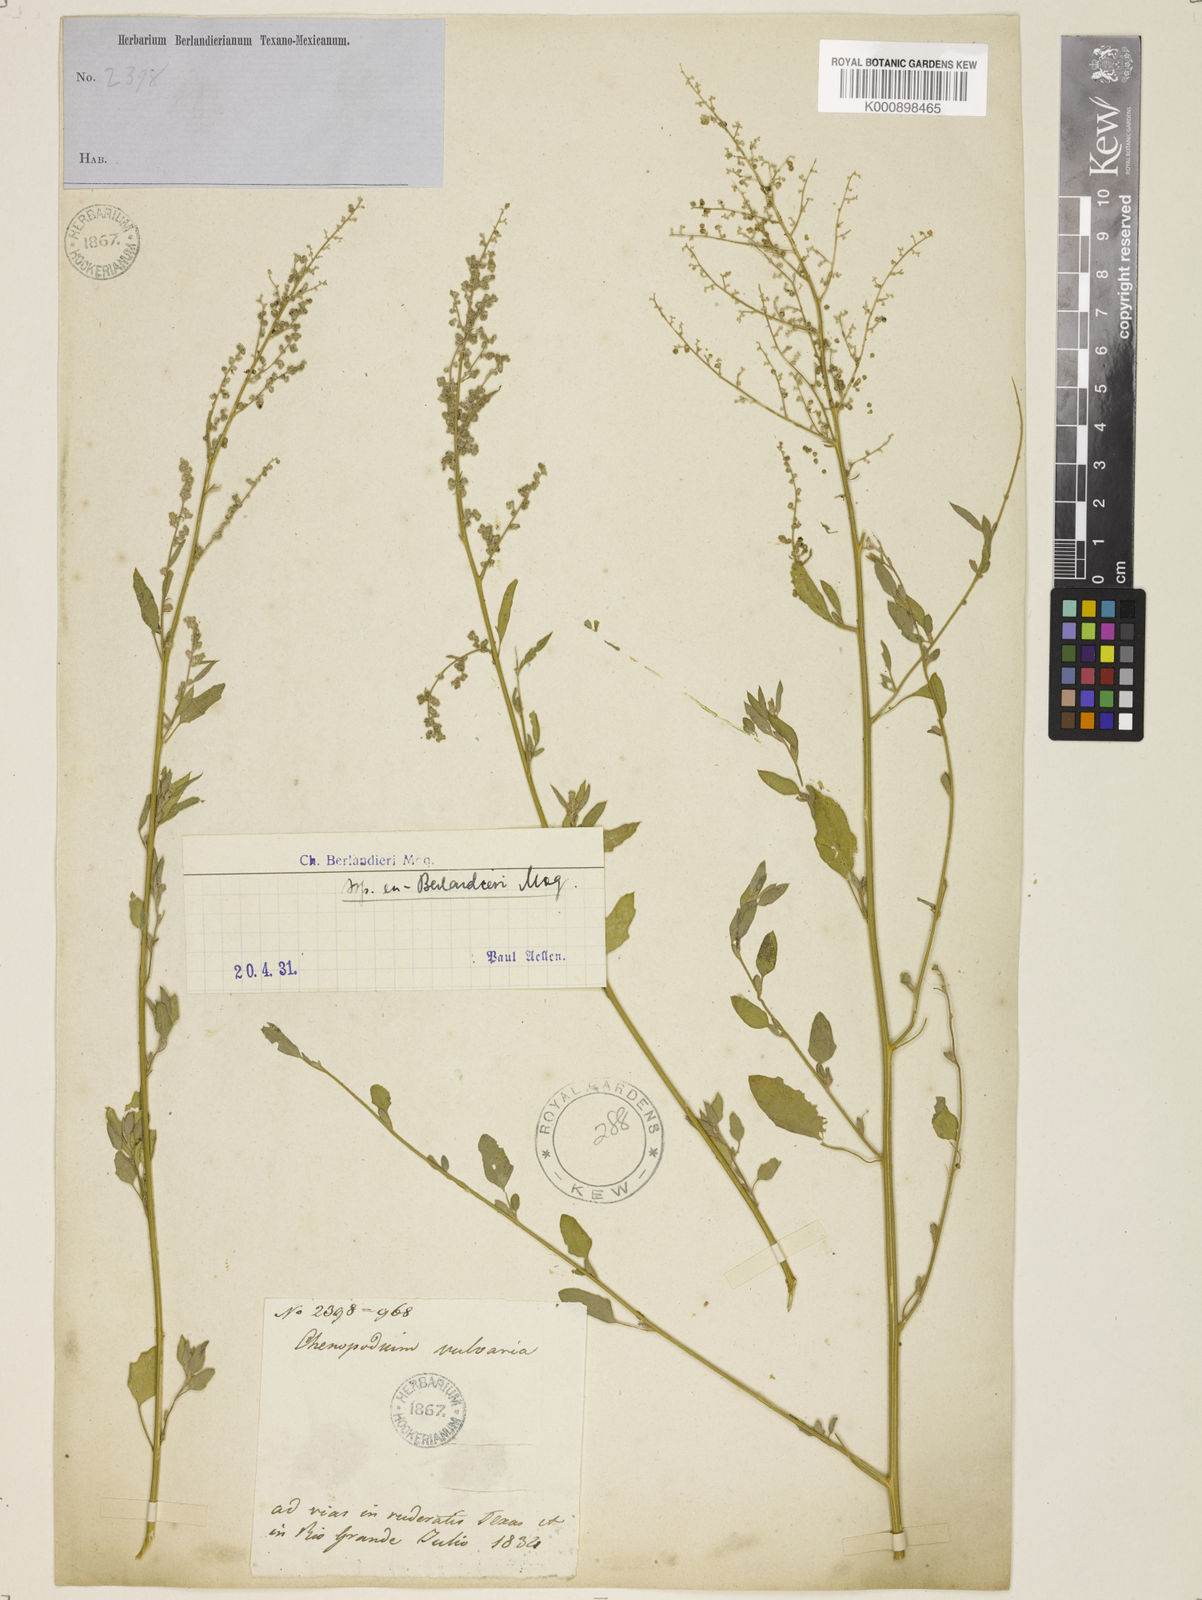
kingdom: Plantae
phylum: Tracheophyta
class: Magnoliopsida
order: Caryophyllales
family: Amaranthaceae
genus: Chenopodium
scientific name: Chenopodium berlandieri
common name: Pit-seed goosefoot
